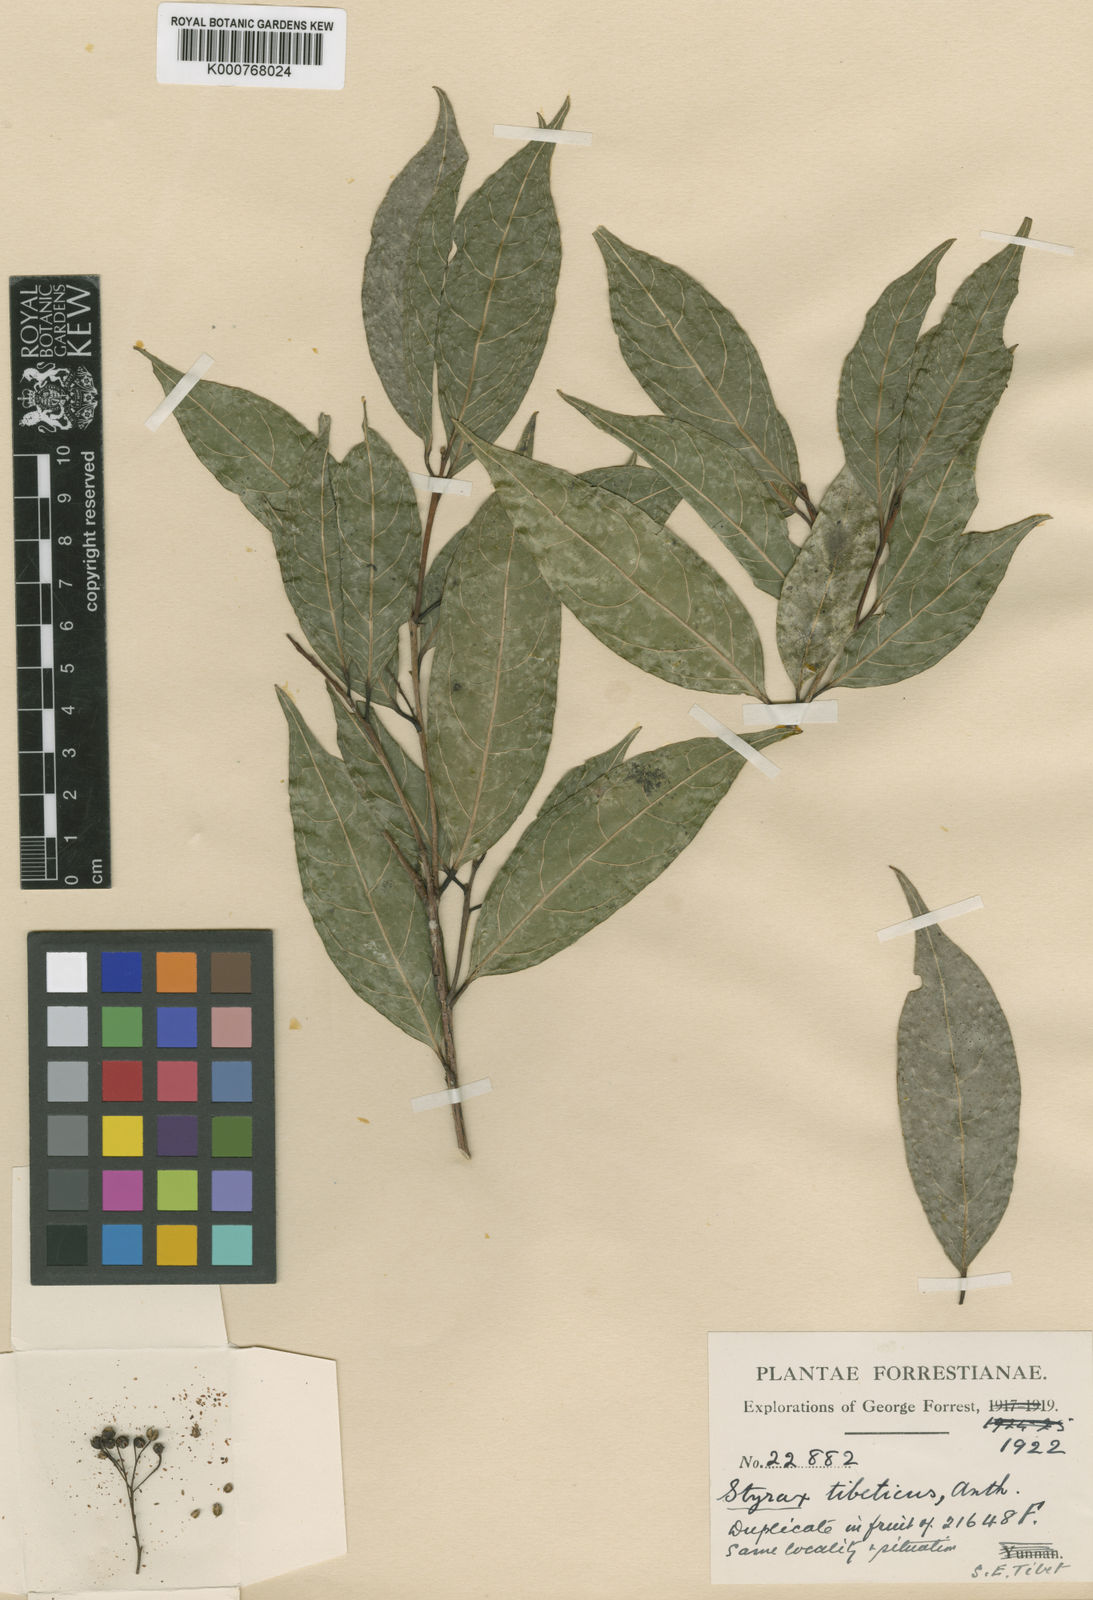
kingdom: Plantae
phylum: Tracheophyta
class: Magnoliopsida
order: Ericales
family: Styracaceae
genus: Huodendron
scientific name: Huodendron tibeticum
